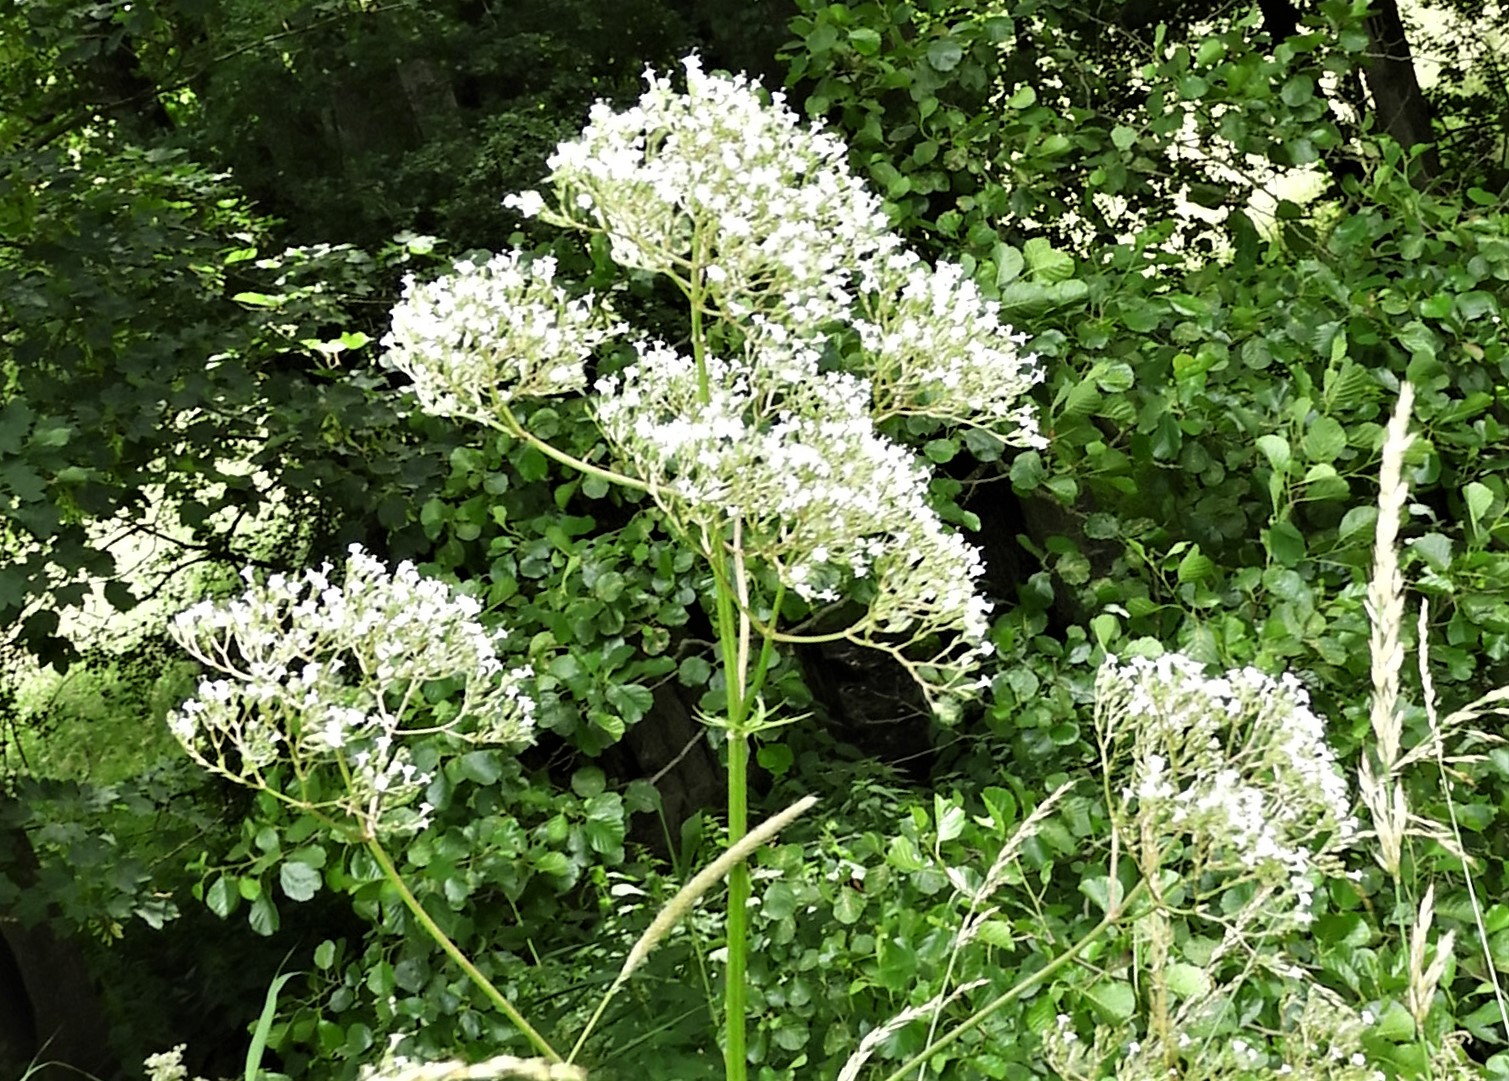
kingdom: Fungi
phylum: Basidiomycota
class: Pucciniomycetes
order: Pucciniales
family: Pucciniaceae
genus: Uromyces
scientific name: Uromyces valerianae
